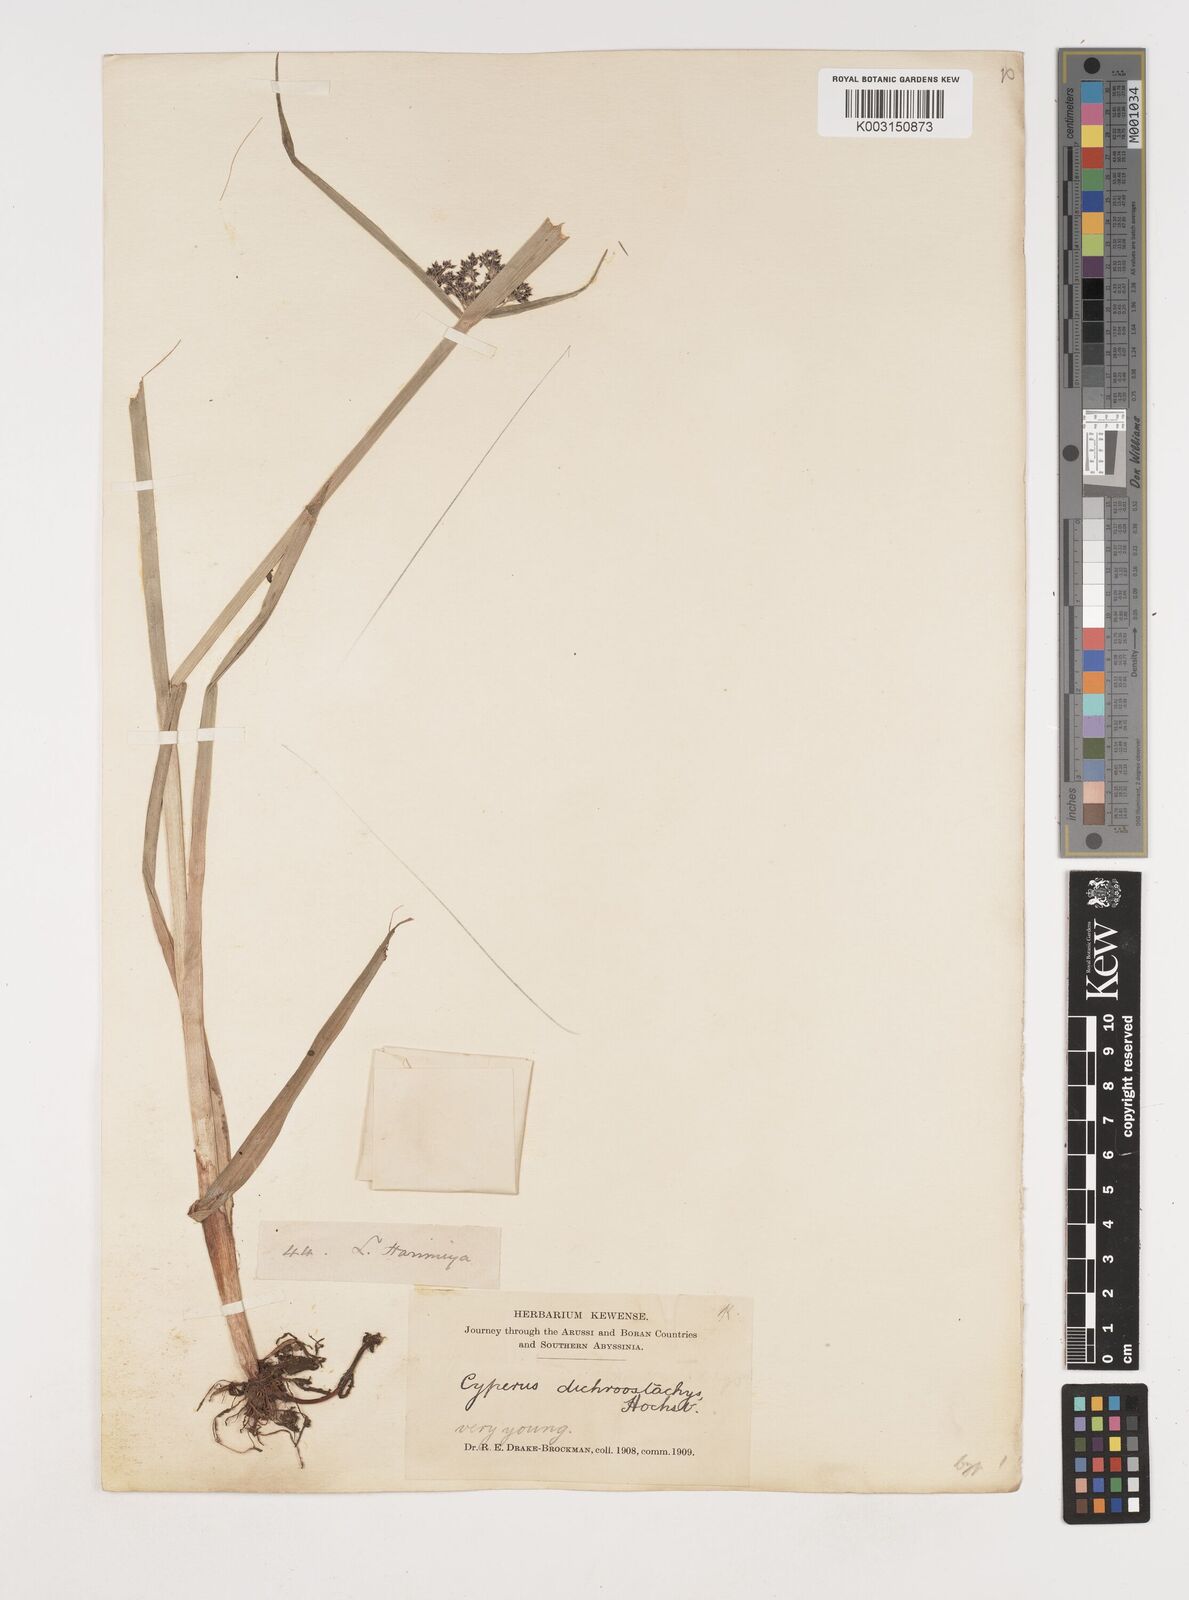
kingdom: Plantae
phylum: Tracheophyta
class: Liliopsida
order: Poales
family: Cyperaceae
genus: Cyperus
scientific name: Cyperus dichrostachyus
